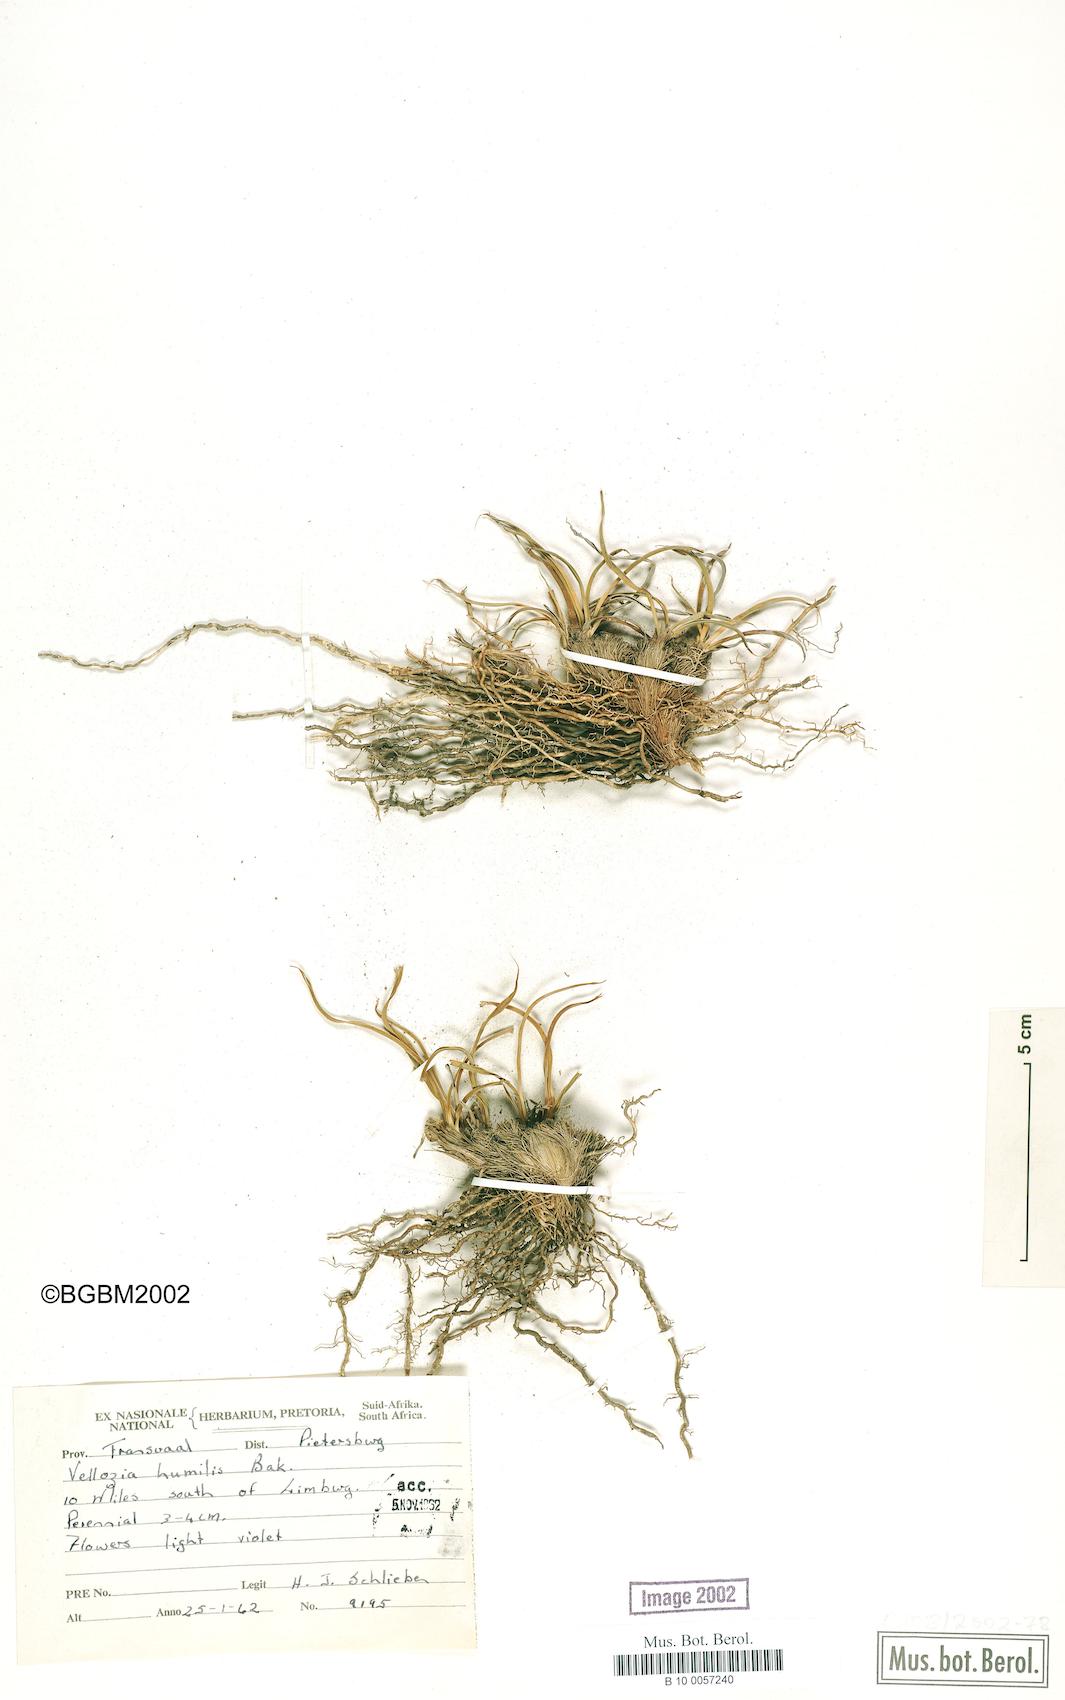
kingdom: Plantae
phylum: Tracheophyta
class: Liliopsida
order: Pandanales
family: Velloziaceae
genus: Xerophyta
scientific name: Xerophyta humilis
